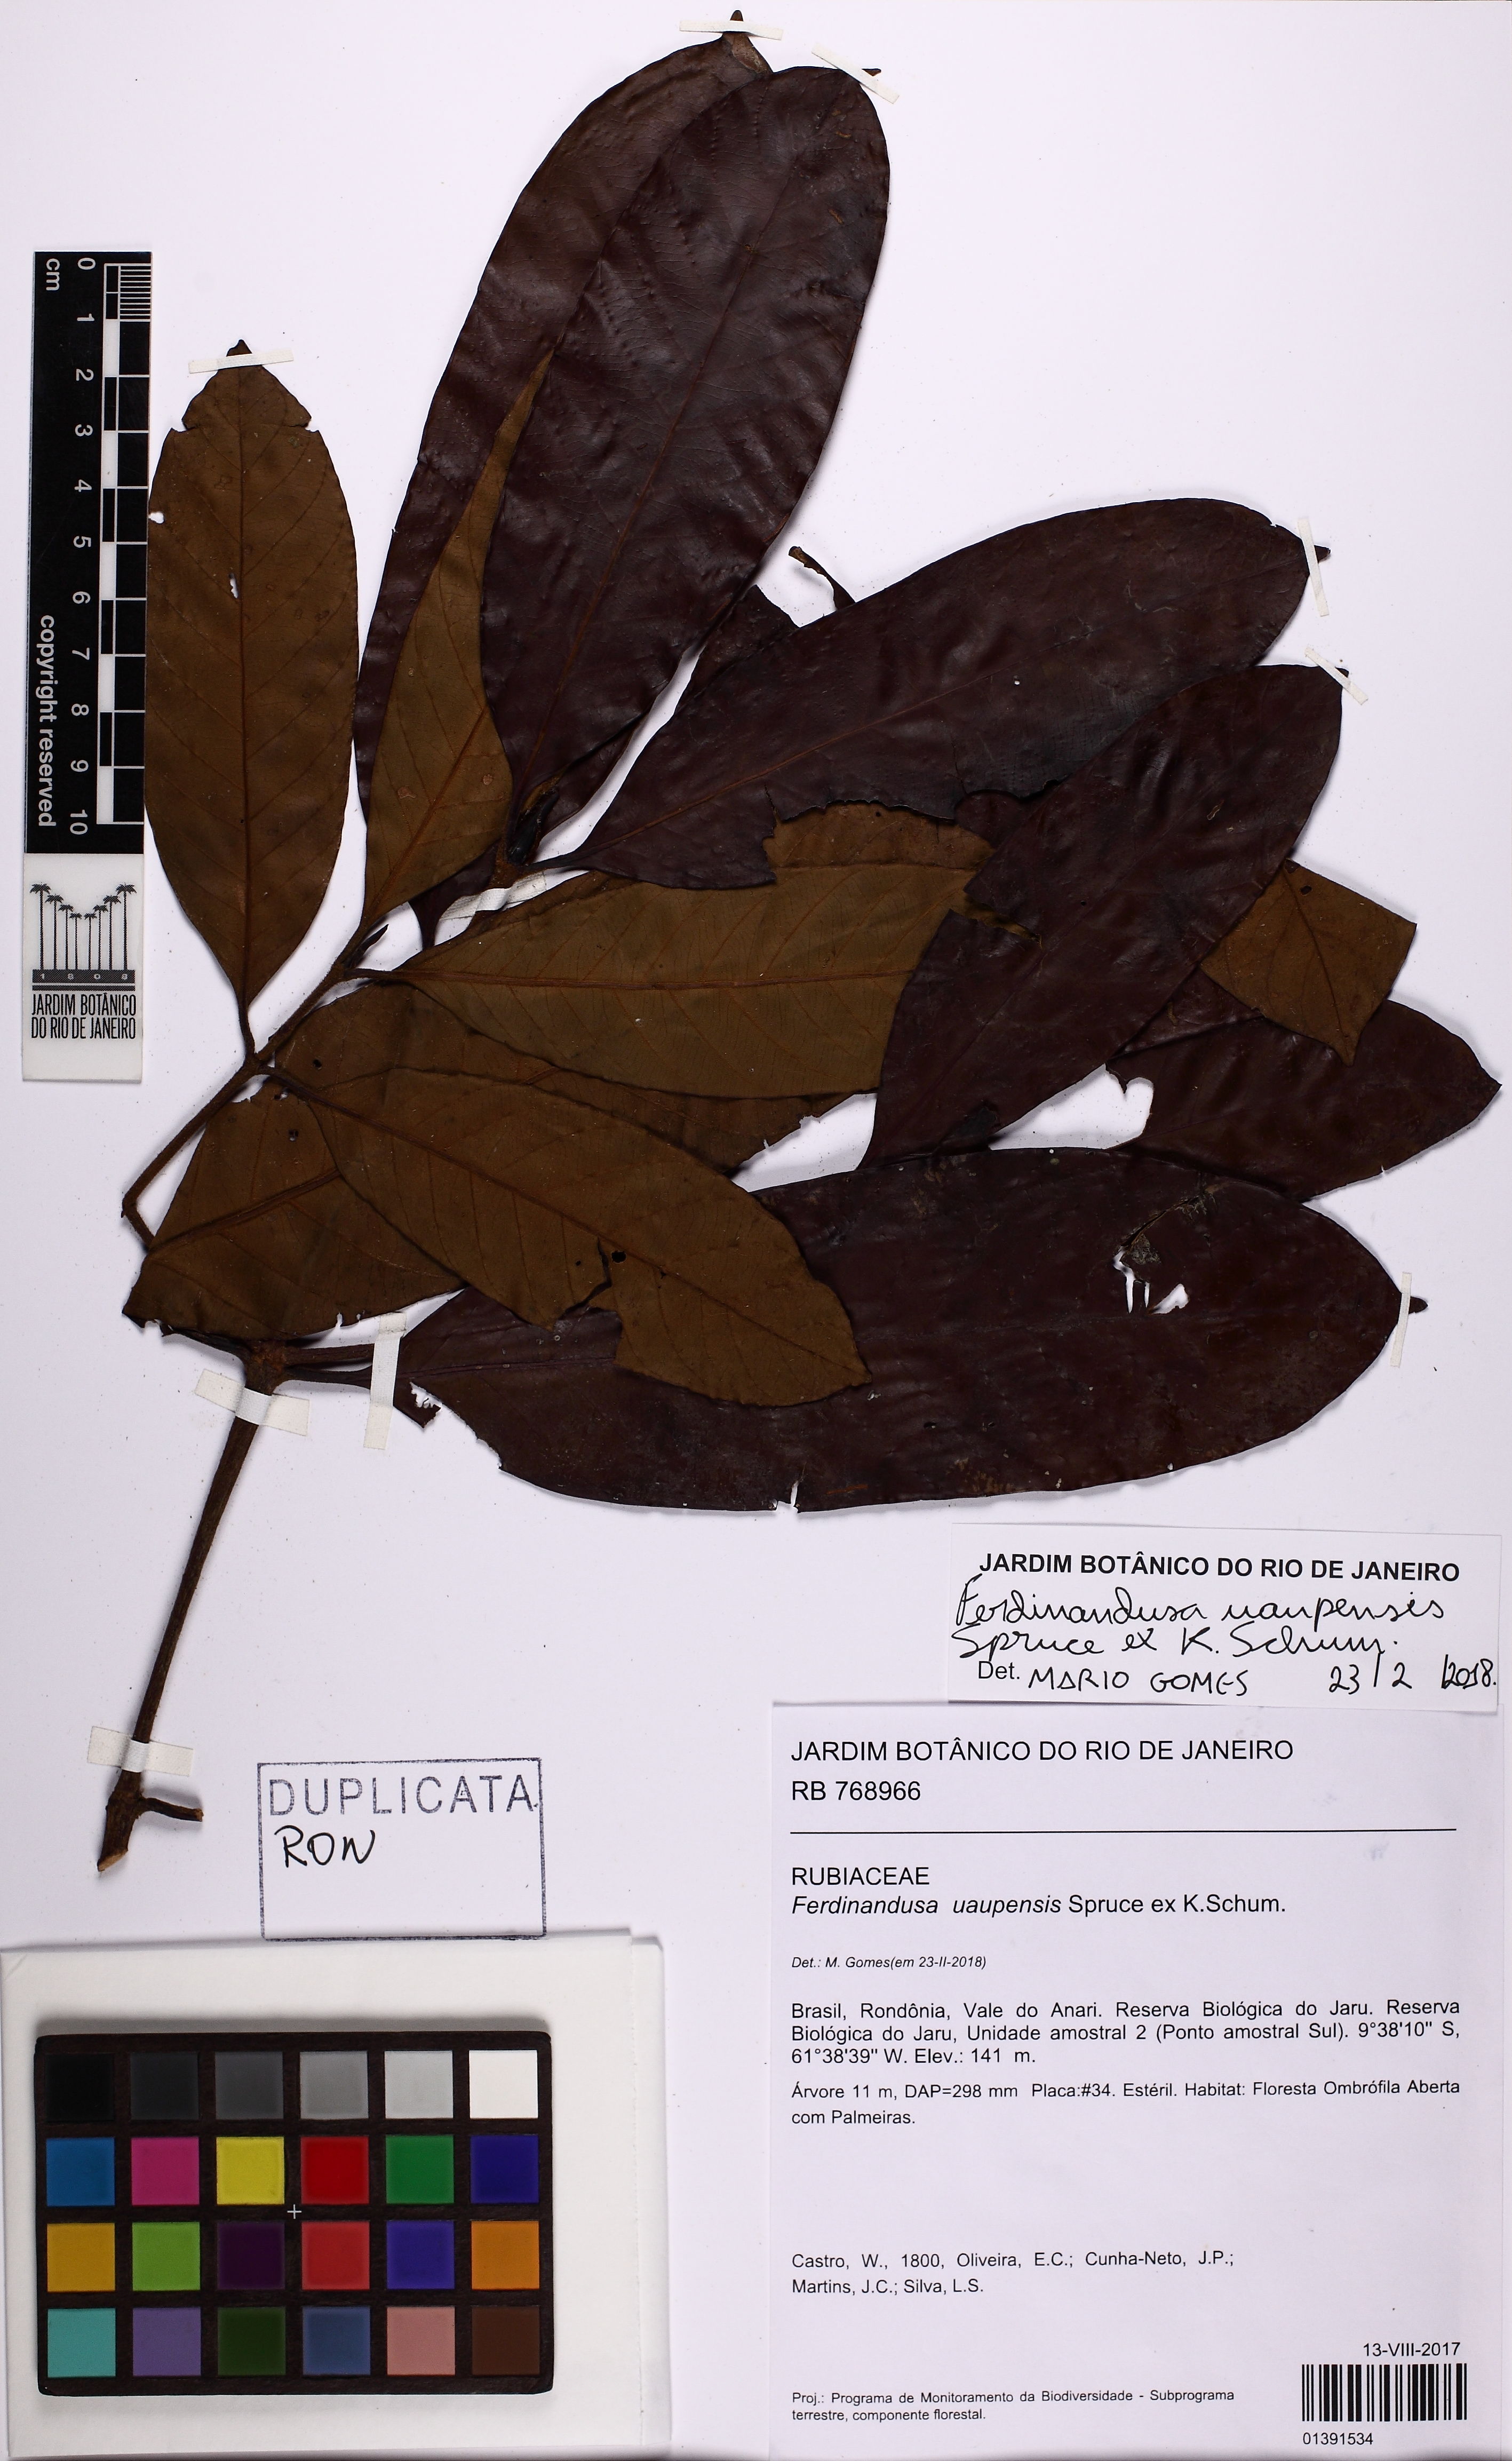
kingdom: Plantae
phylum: Tracheophyta
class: Magnoliopsida
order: Gentianales
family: Rubiaceae
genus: Ferdinandusa
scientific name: Ferdinandusa uaupensis
